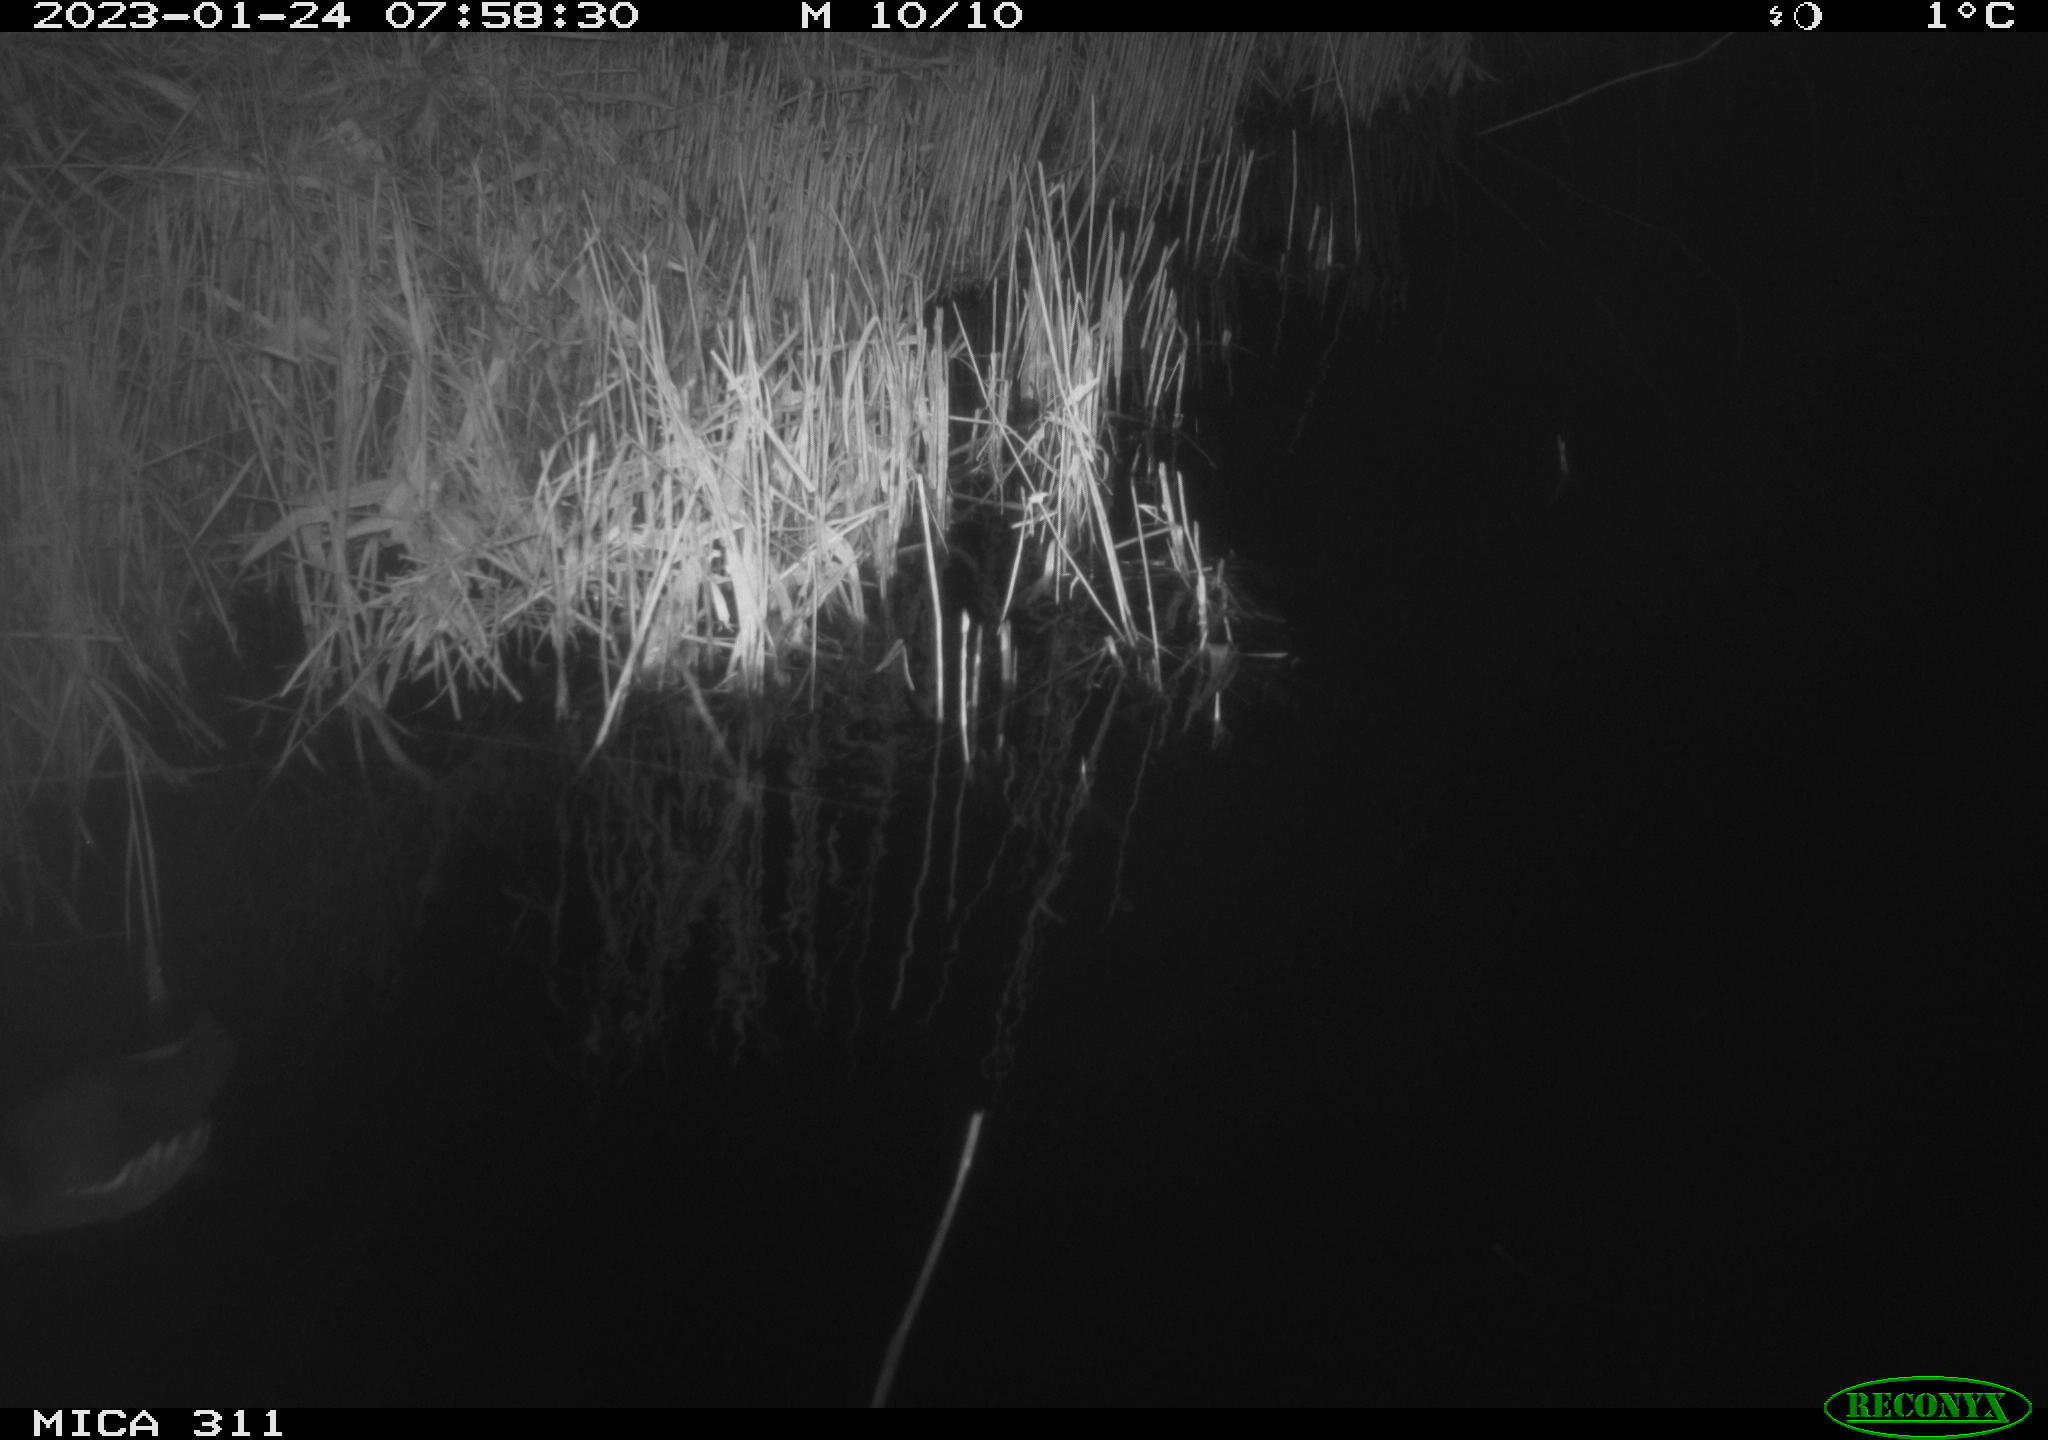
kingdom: Animalia
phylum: Chordata
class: Aves
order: Gruiformes
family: Rallidae
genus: Gallinula
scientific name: Gallinula chloropus
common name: Common moorhen
